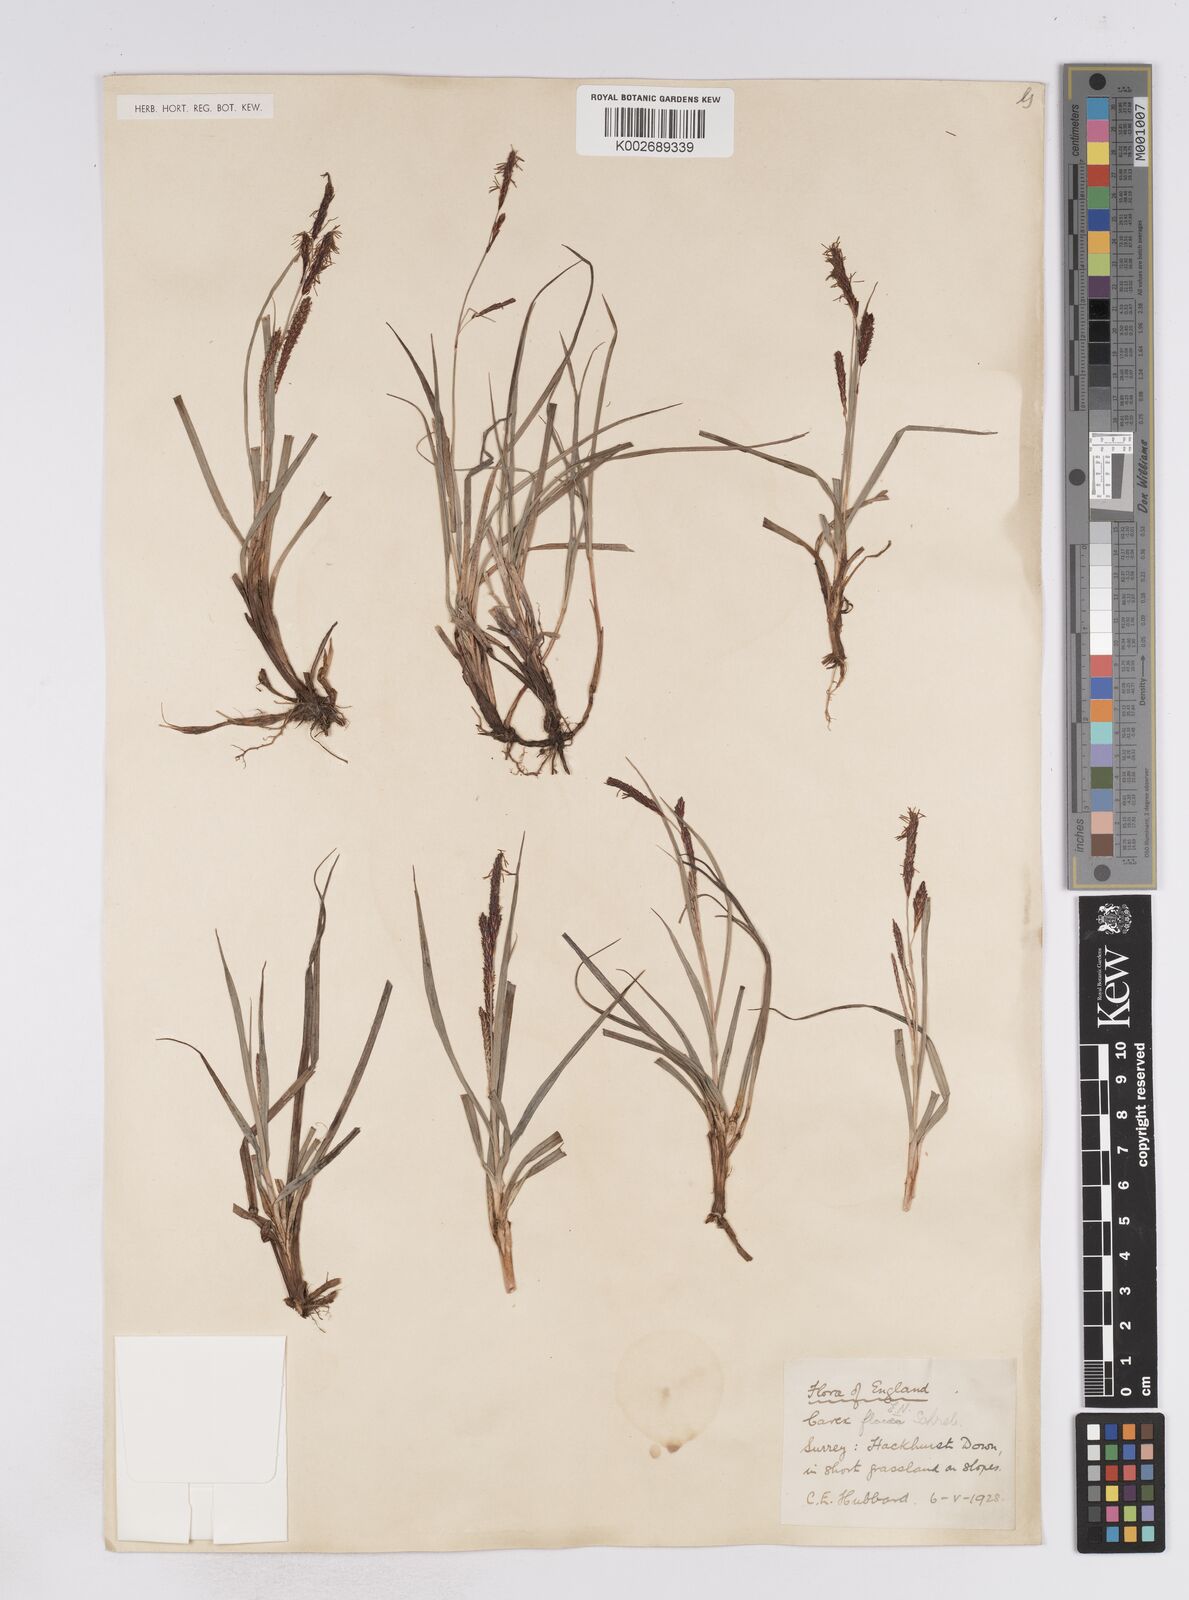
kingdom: Plantae
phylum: Tracheophyta
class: Liliopsida
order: Poales
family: Cyperaceae
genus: Carex
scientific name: Carex flacca
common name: Glaucous sedge
